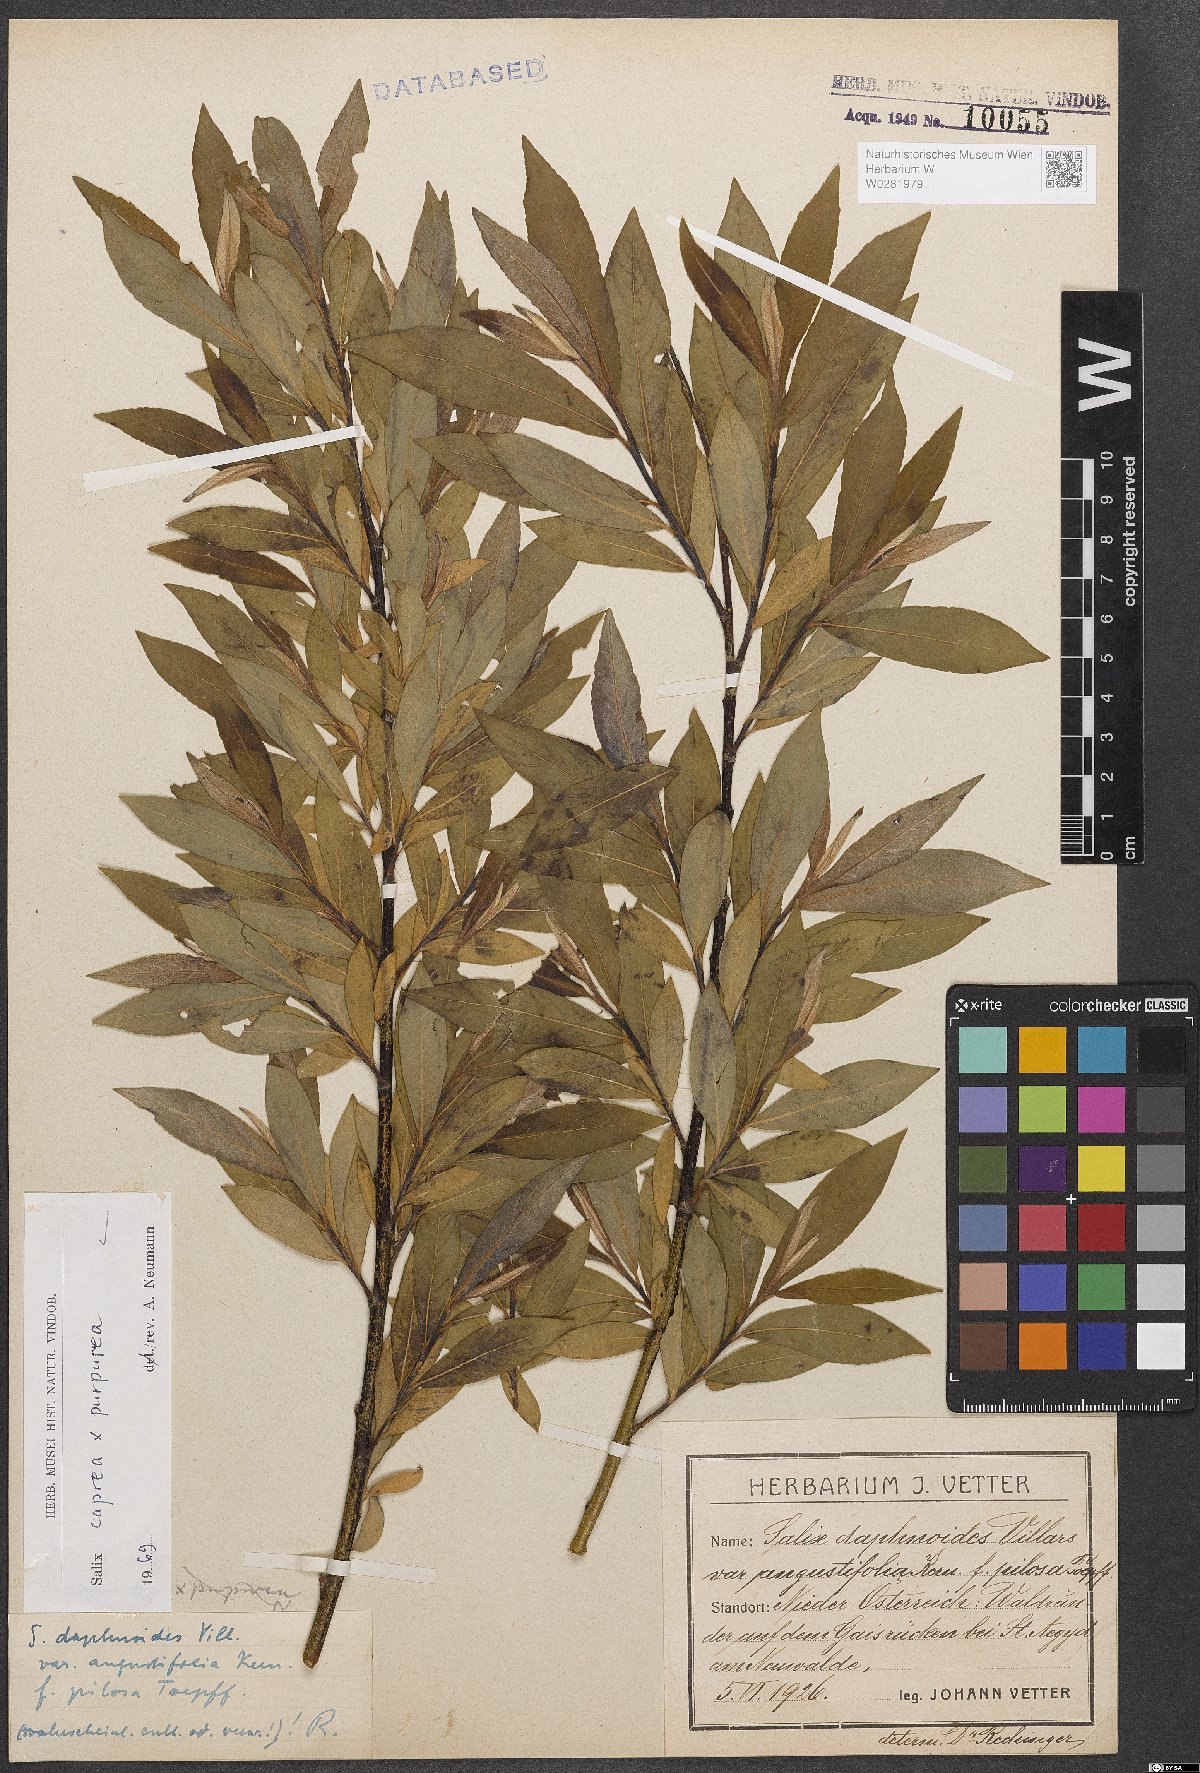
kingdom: Plantae
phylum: Tracheophyta
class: Magnoliopsida
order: Malpighiales
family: Salicaceae
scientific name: Salicaceae
